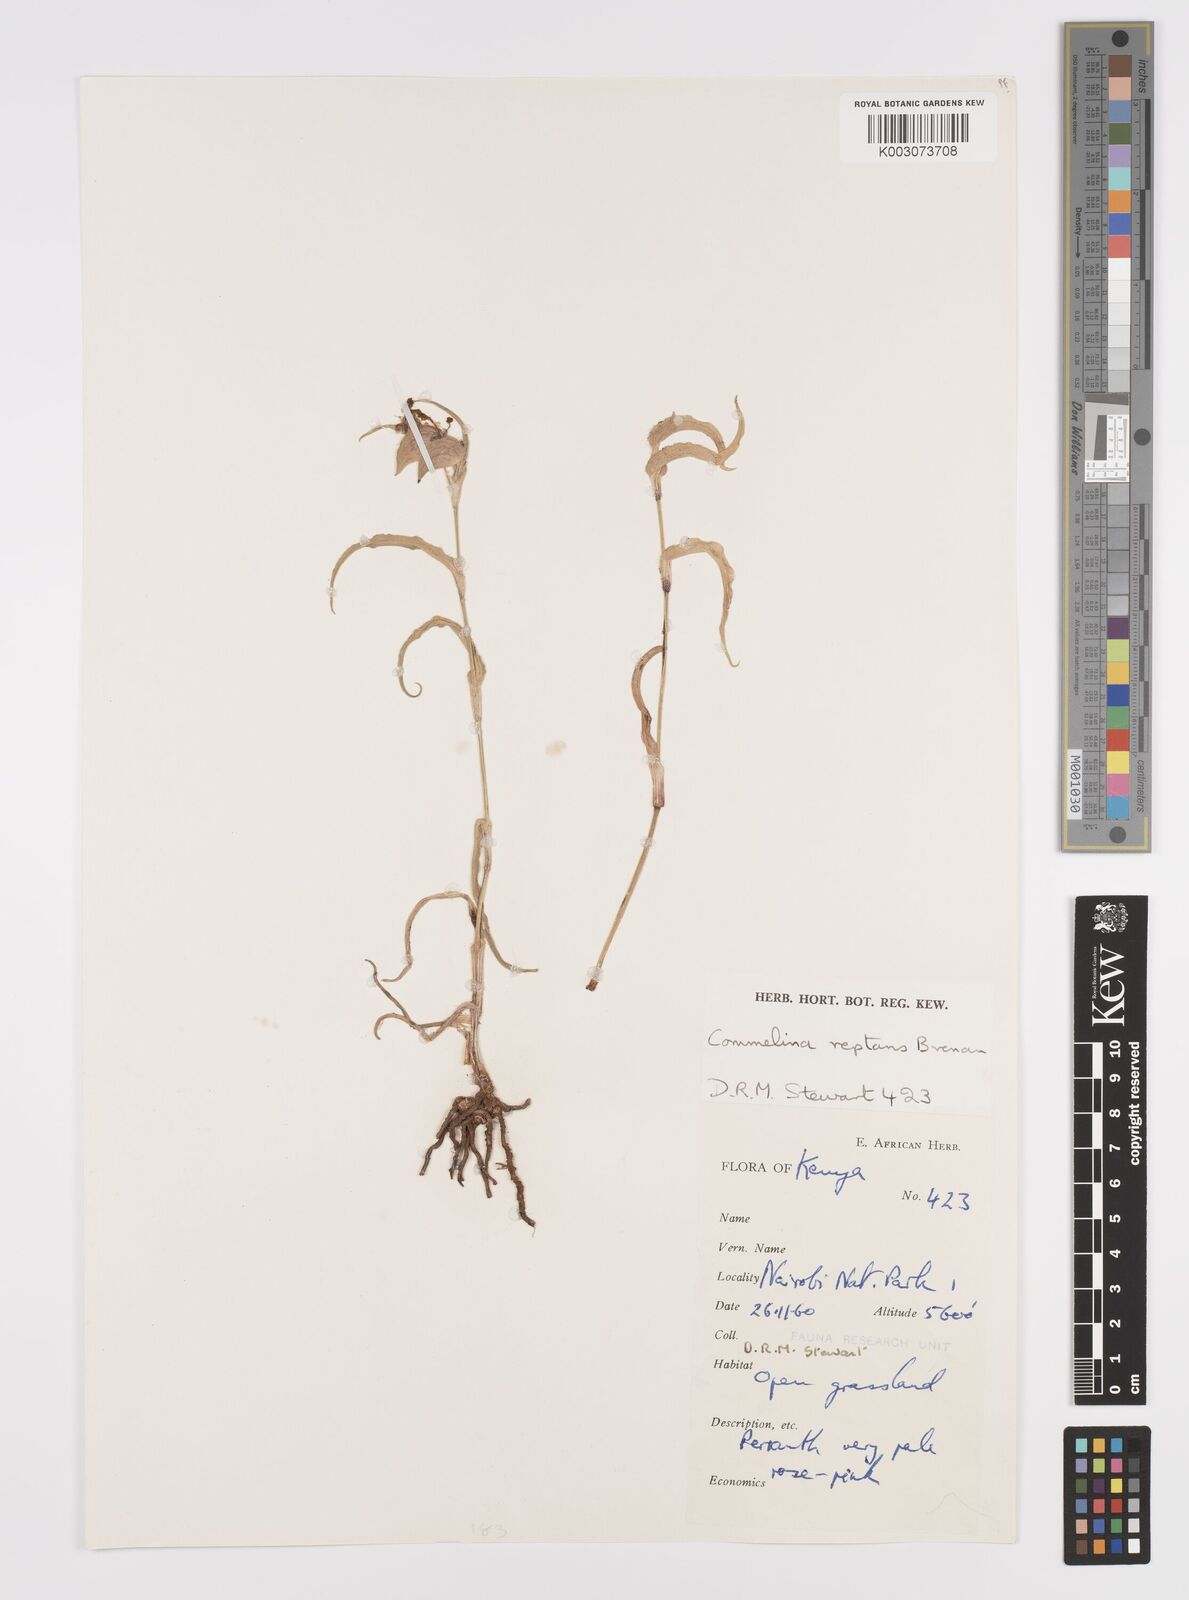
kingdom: Plantae
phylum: Tracheophyta
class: Liliopsida
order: Commelinales
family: Commelinaceae
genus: Commelina
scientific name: Commelina reptans
